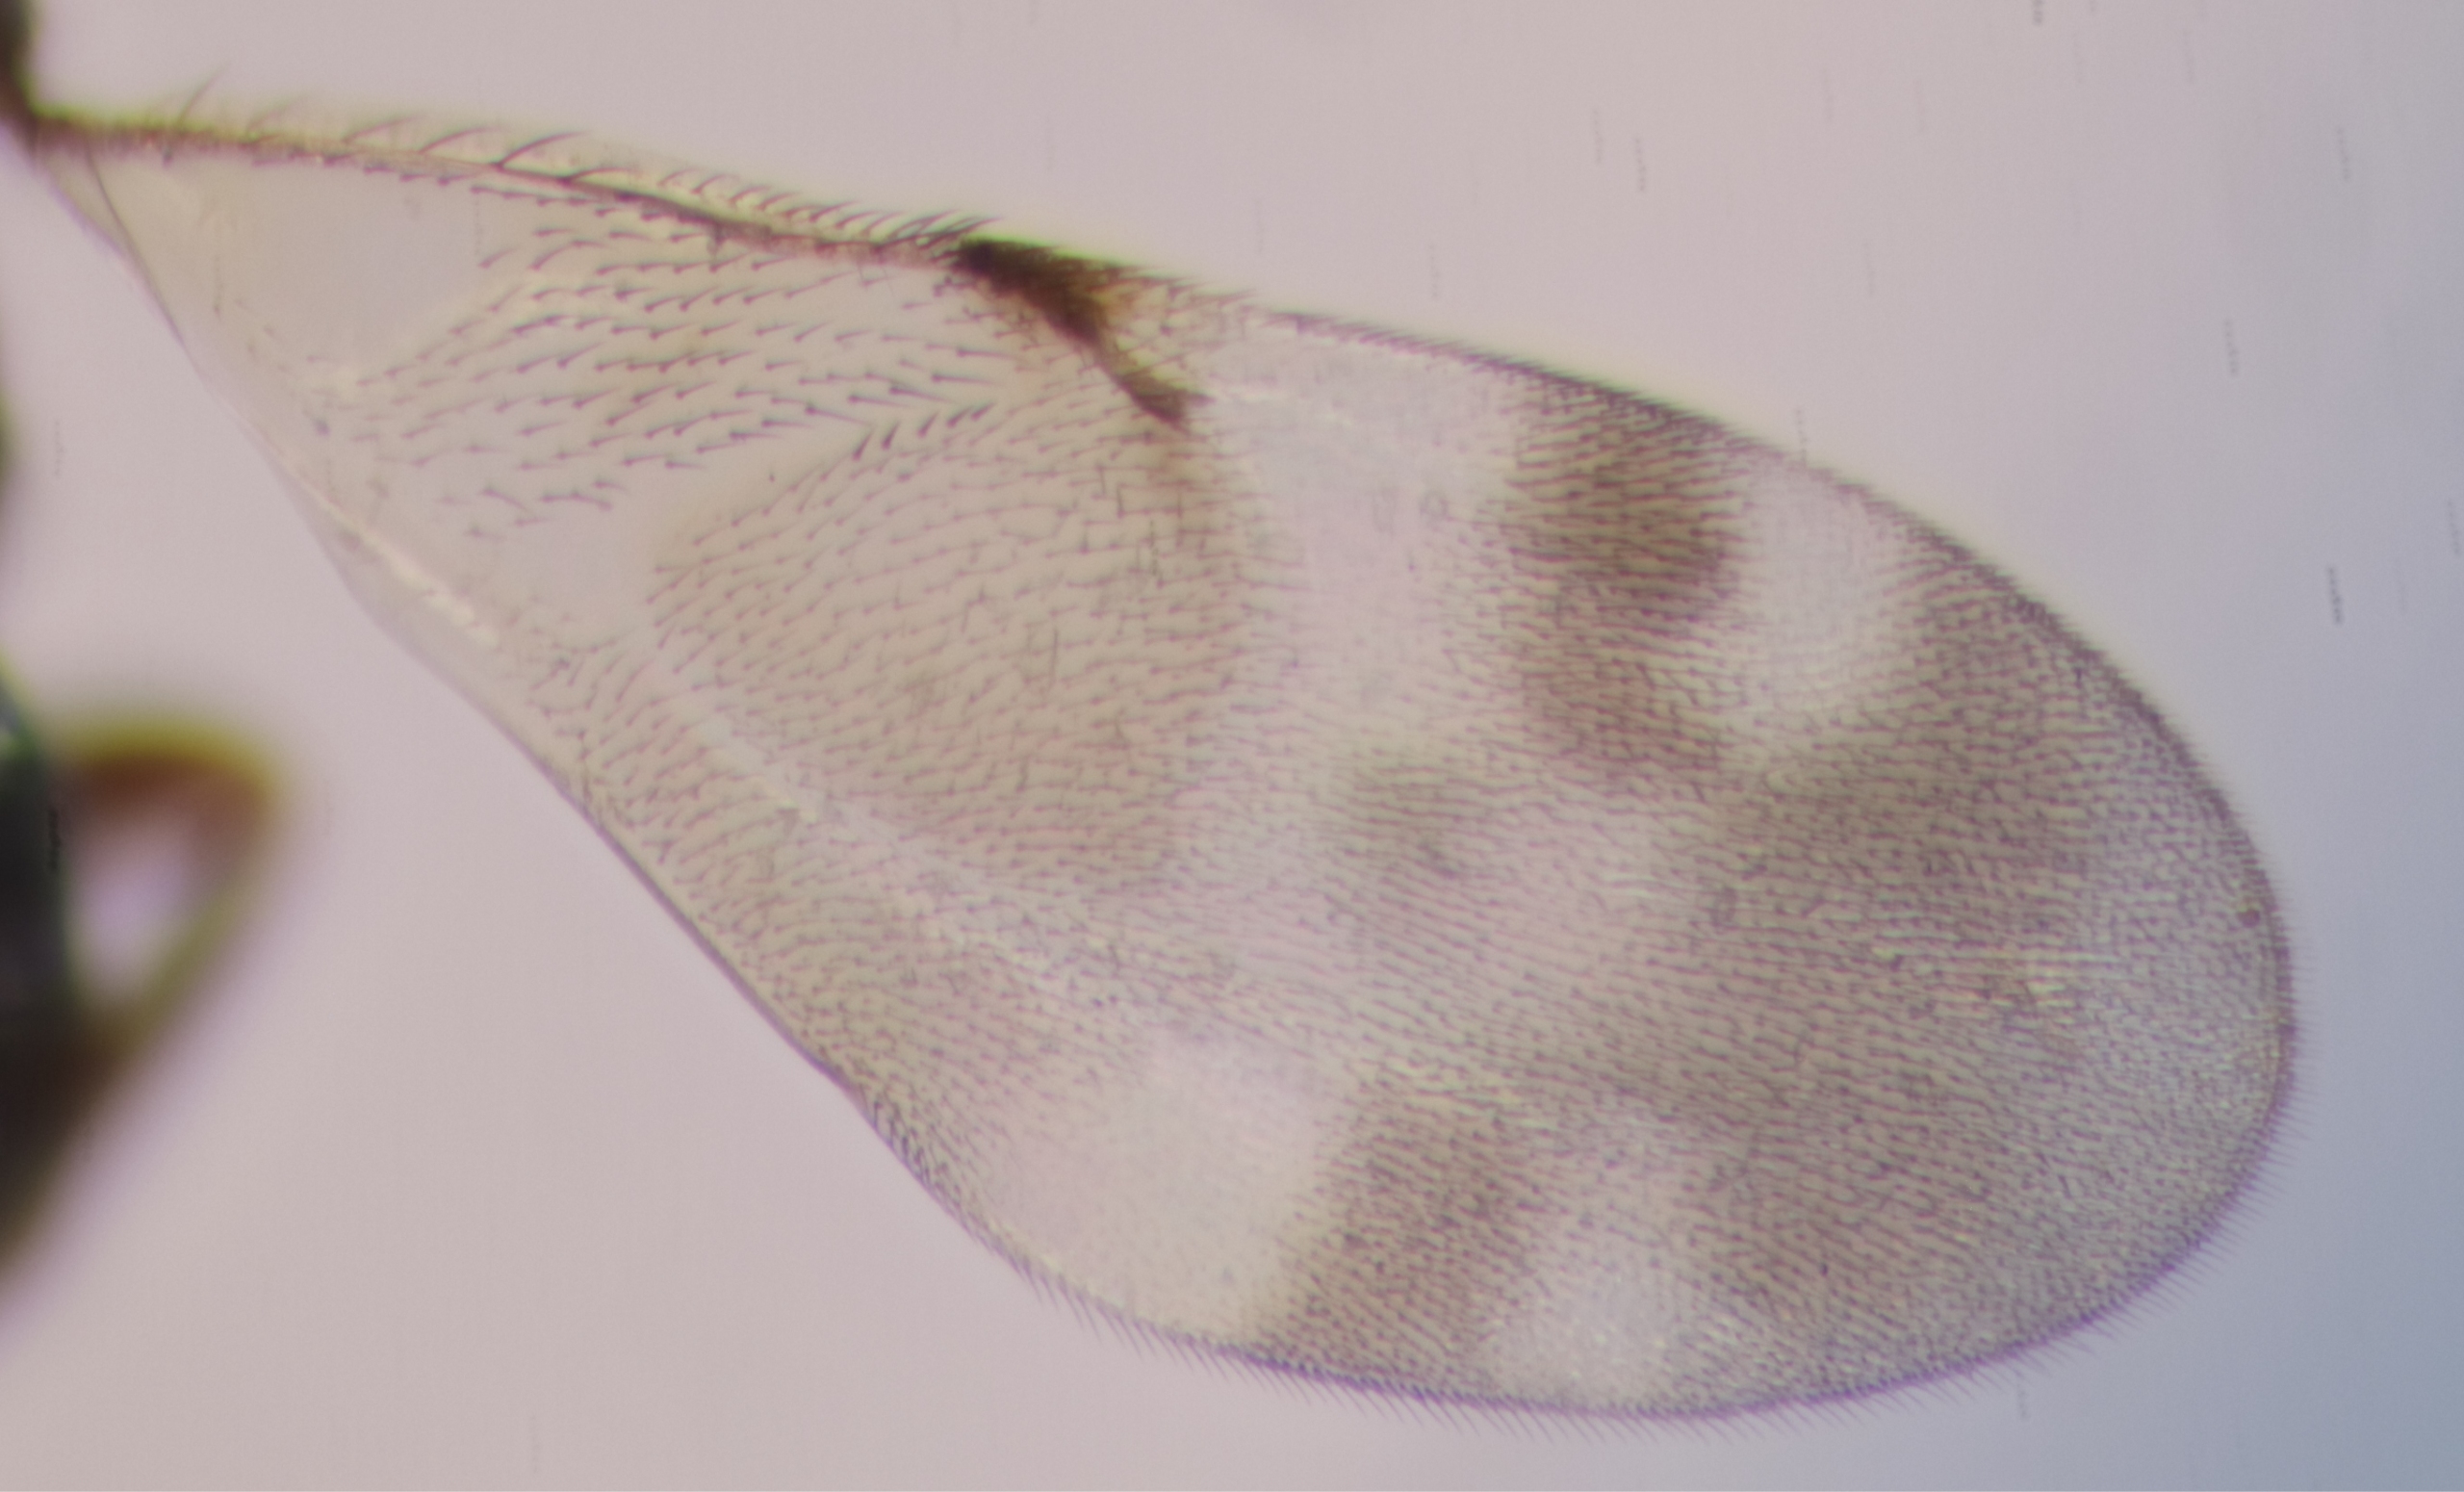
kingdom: Animalia
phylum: Arthropoda
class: Insecta
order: Hymenoptera
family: Encyrtidae
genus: Microterys
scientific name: Microterys tessellatus
